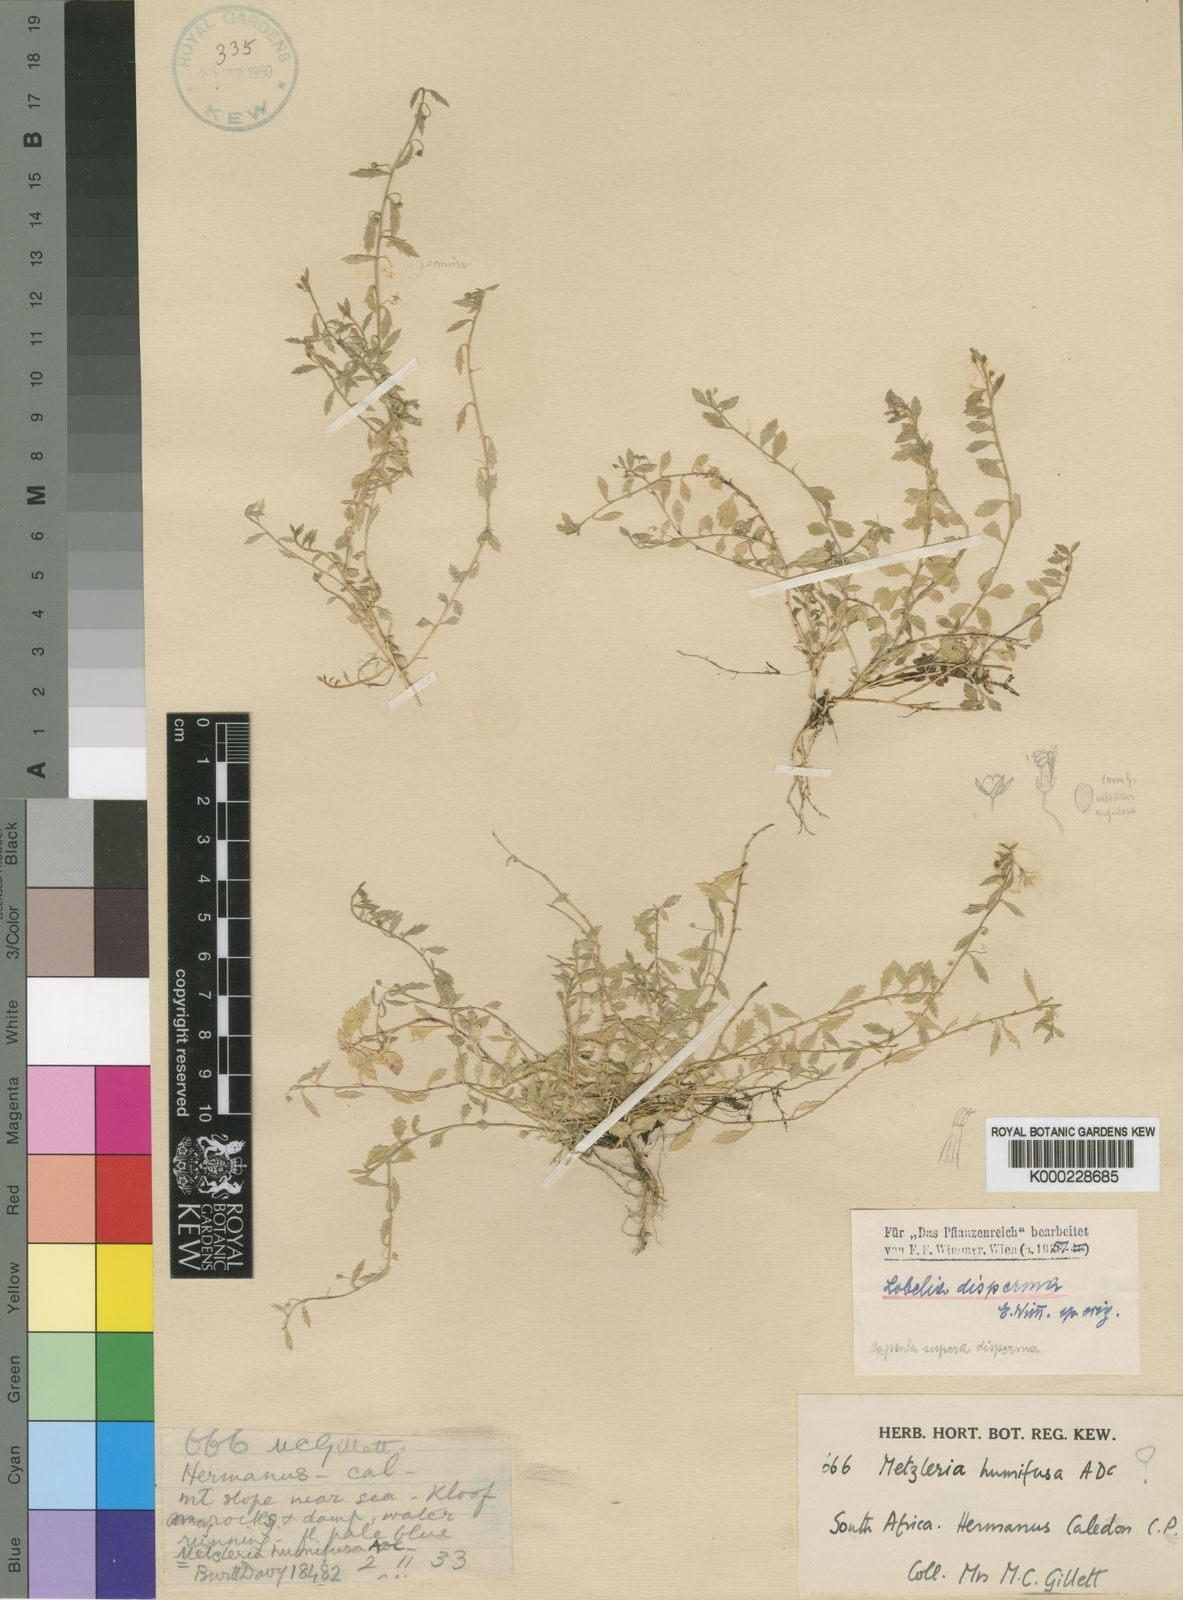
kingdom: Plantae
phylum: Tracheophyta
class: Magnoliopsida
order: Asterales
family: Campanulaceae
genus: Unigenes
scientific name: Unigenes humifusa
